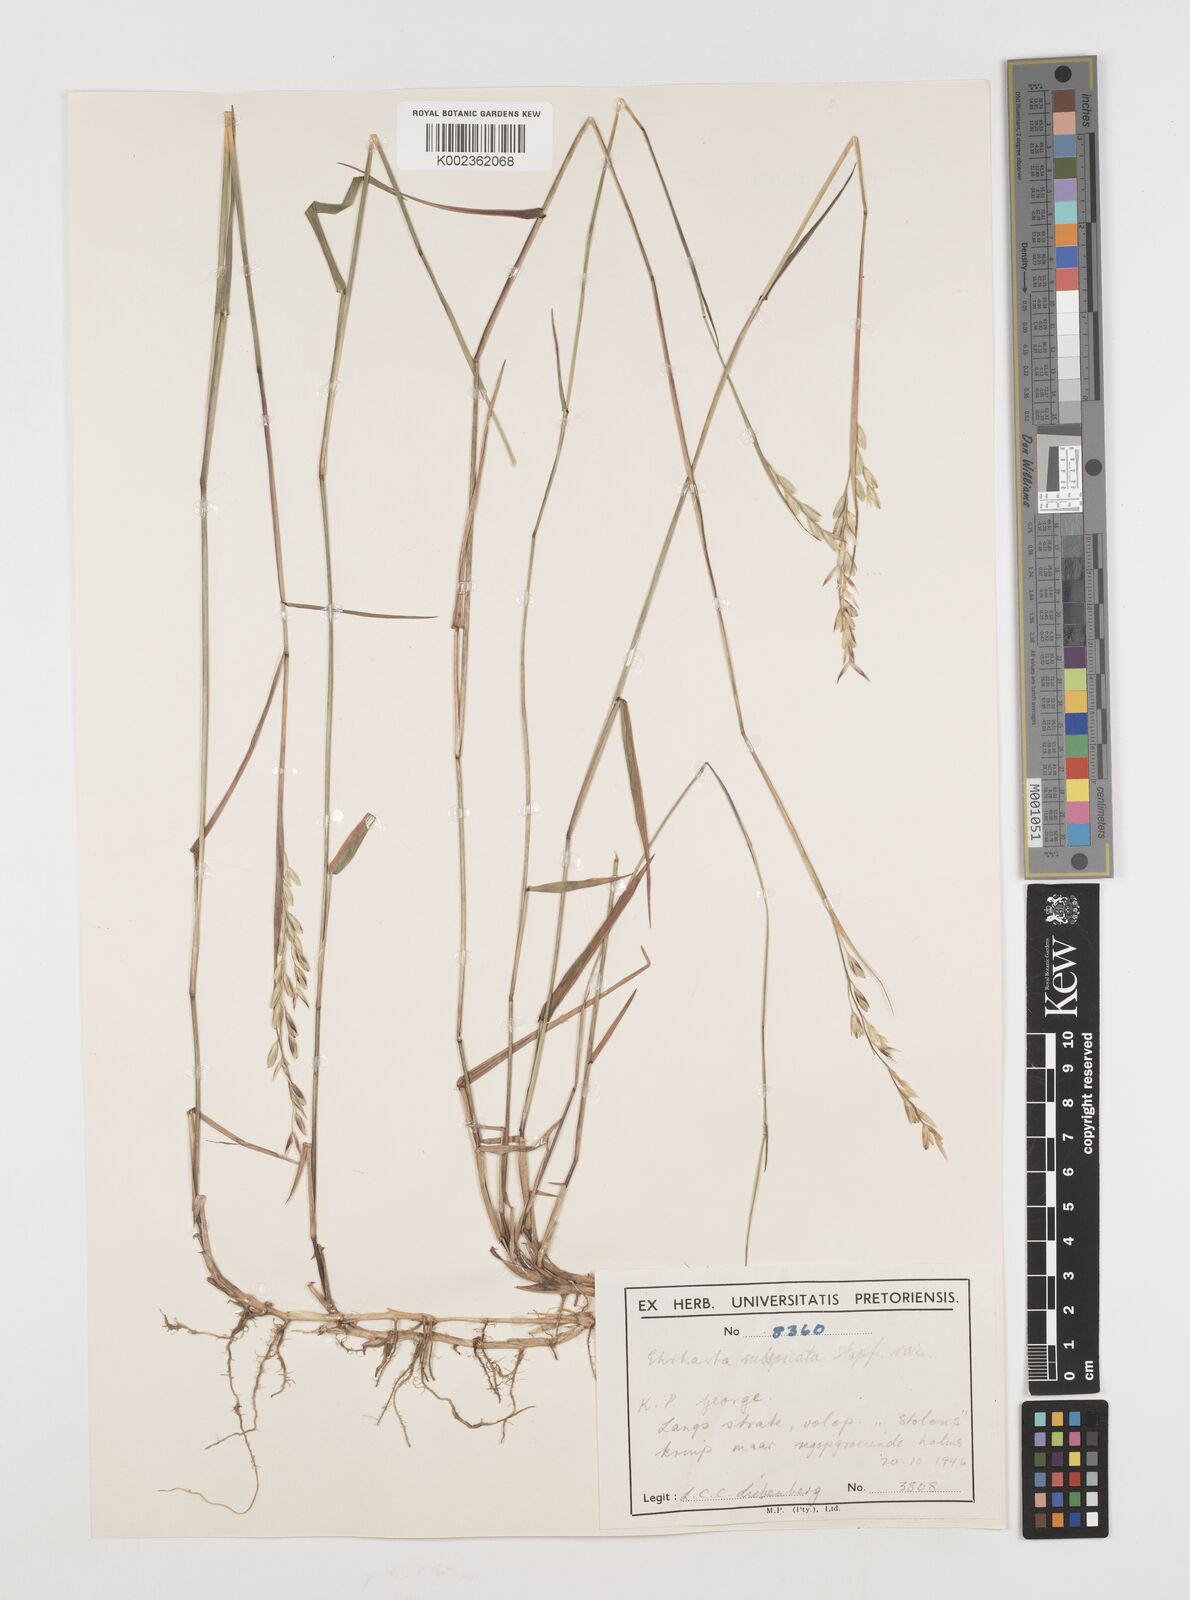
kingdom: Plantae
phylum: Tracheophyta
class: Liliopsida
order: Poales
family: Poaceae
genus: Ehrharta
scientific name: Ehrharta rehmannii
